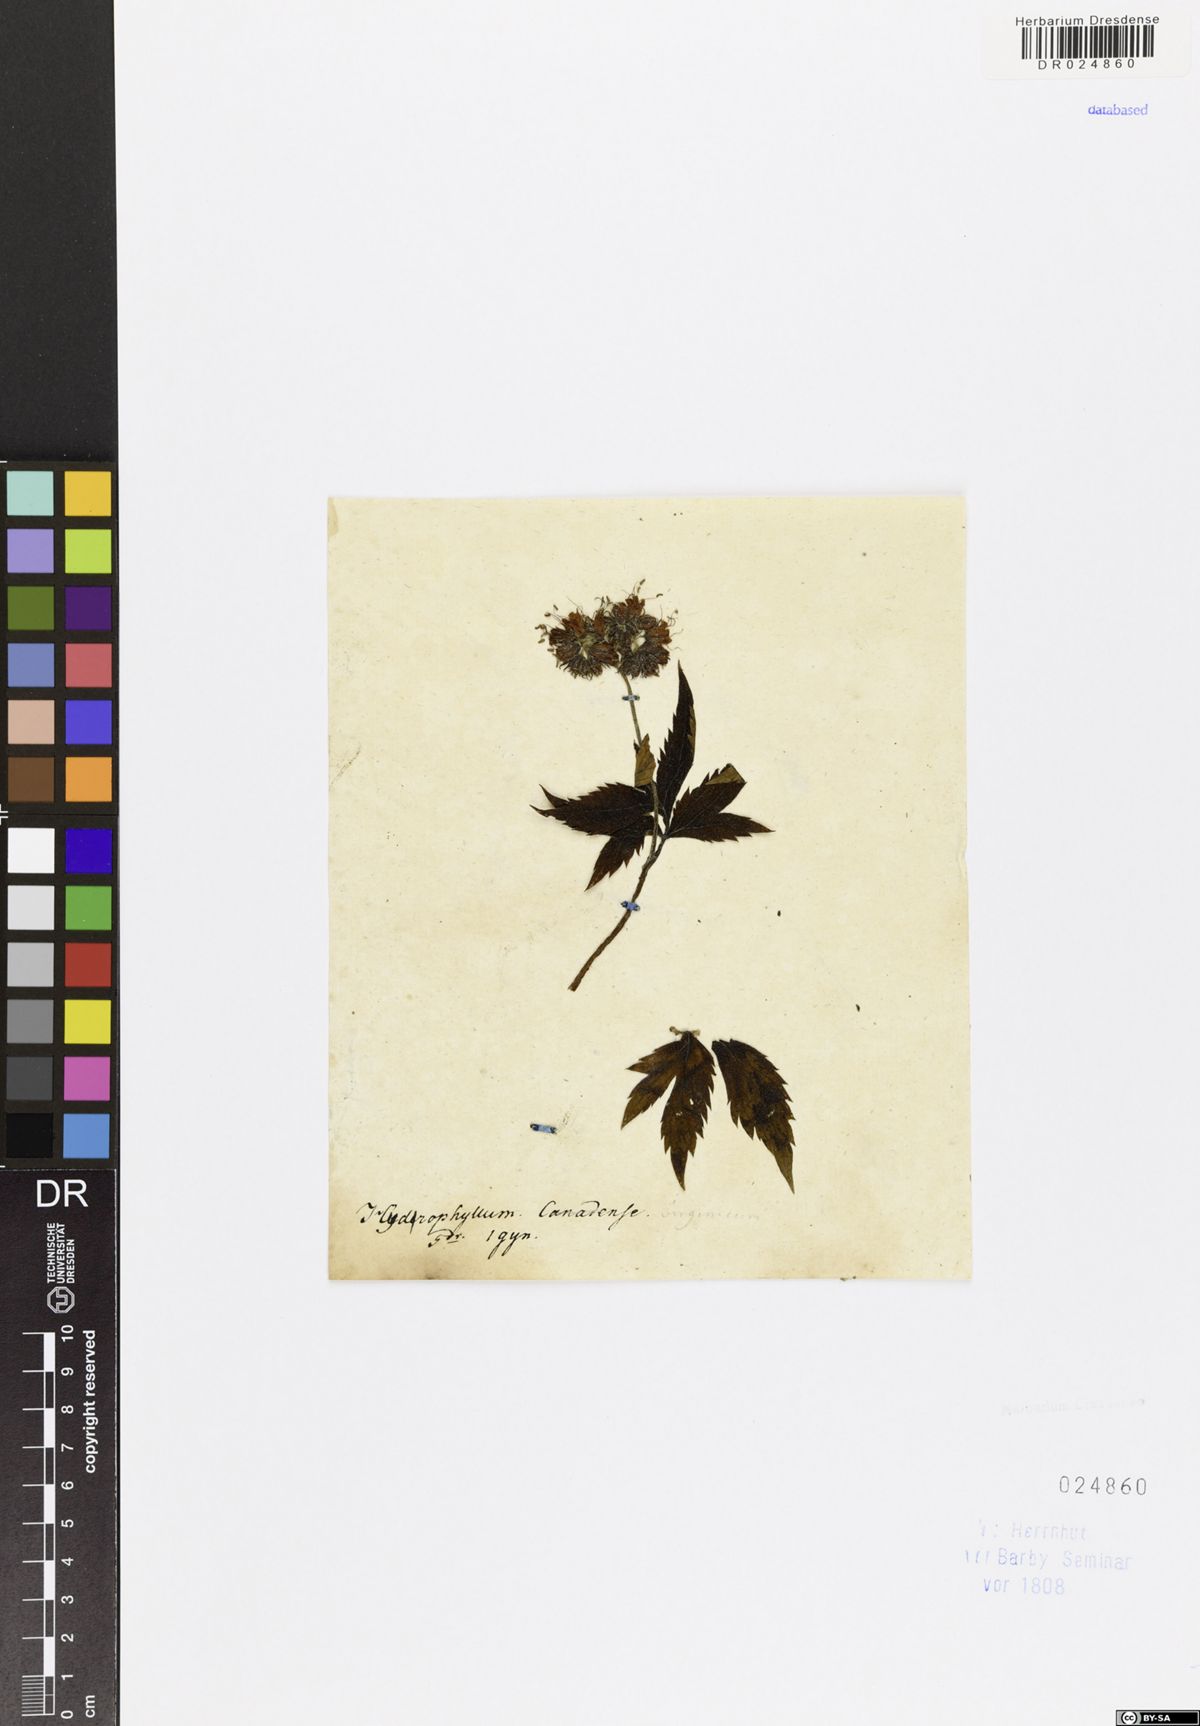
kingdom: Plantae
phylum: Tracheophyta
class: Magnoliopsida
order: Boraginales
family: Hydrophyllaceae
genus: Hydrophyllum
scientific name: Hydrophyllum virginianum
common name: Virginia waterleaf
